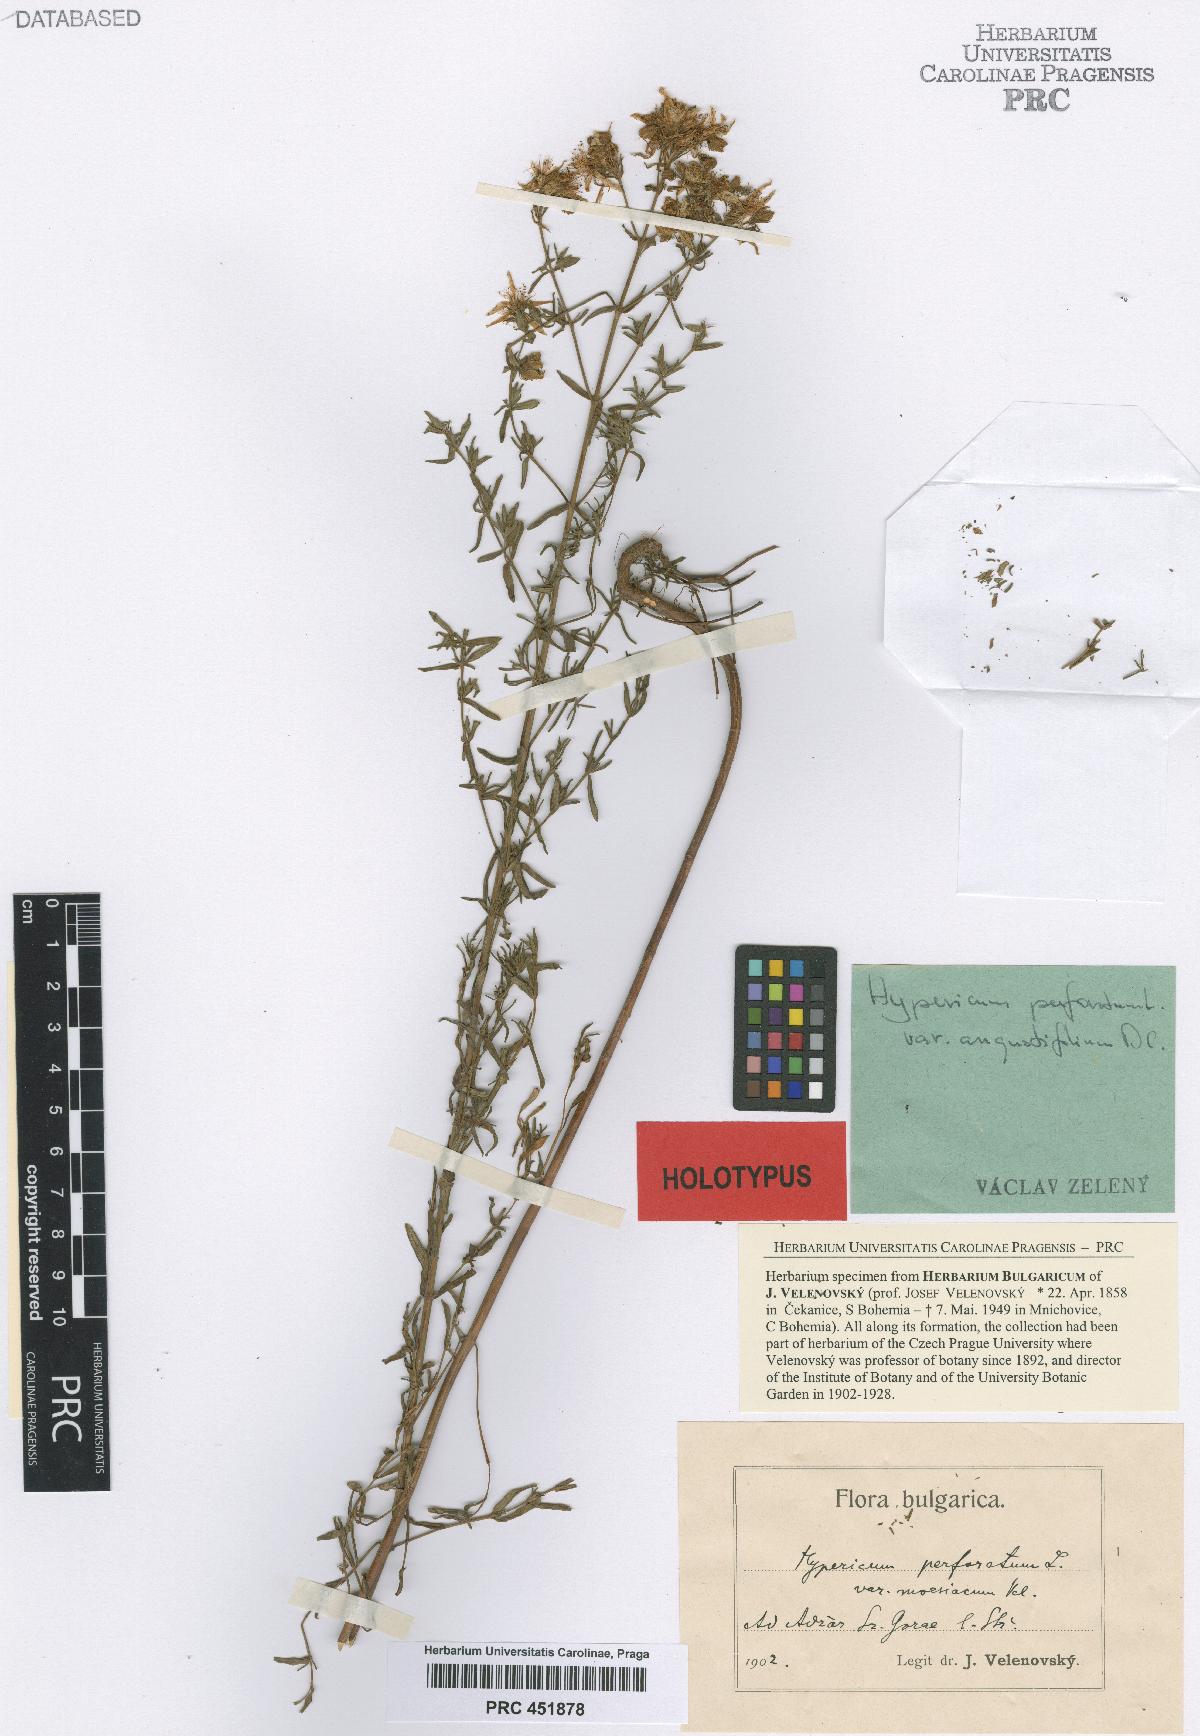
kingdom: Plantae
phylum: Tracheophyta
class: Magnoliopsida
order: Malpighiales
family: Hypericaceae
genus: Hypericum
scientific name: Hypericum perforatum
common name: Common st. johnswort
